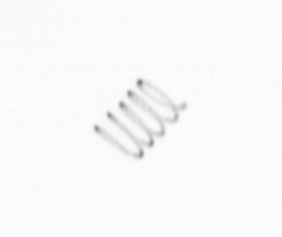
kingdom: Chromista
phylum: Ochrophyta
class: Bacillariophyceae
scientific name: Bacillariophyceae
